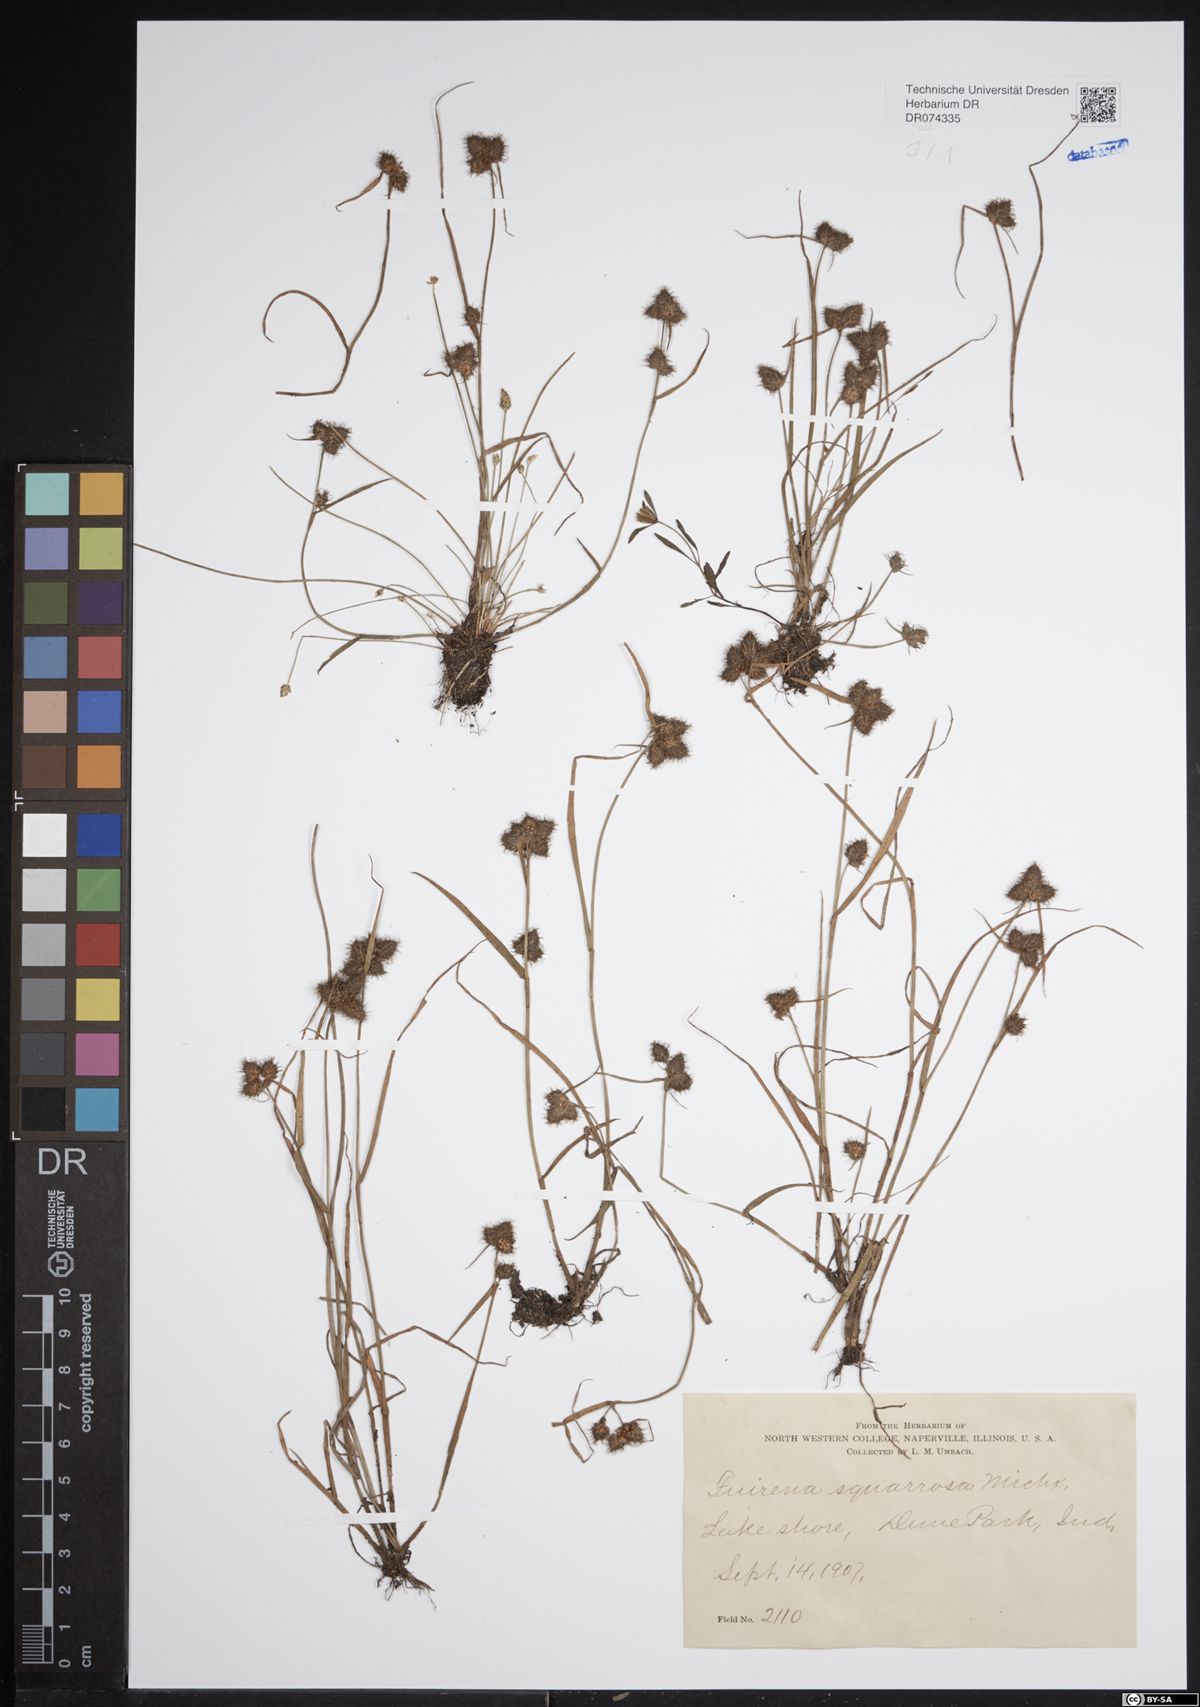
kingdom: Plantae
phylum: Tracheophyta
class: Liliopsida
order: Poales
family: Cyperaceae
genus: Fuirena
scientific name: Fuirena squarrosa
